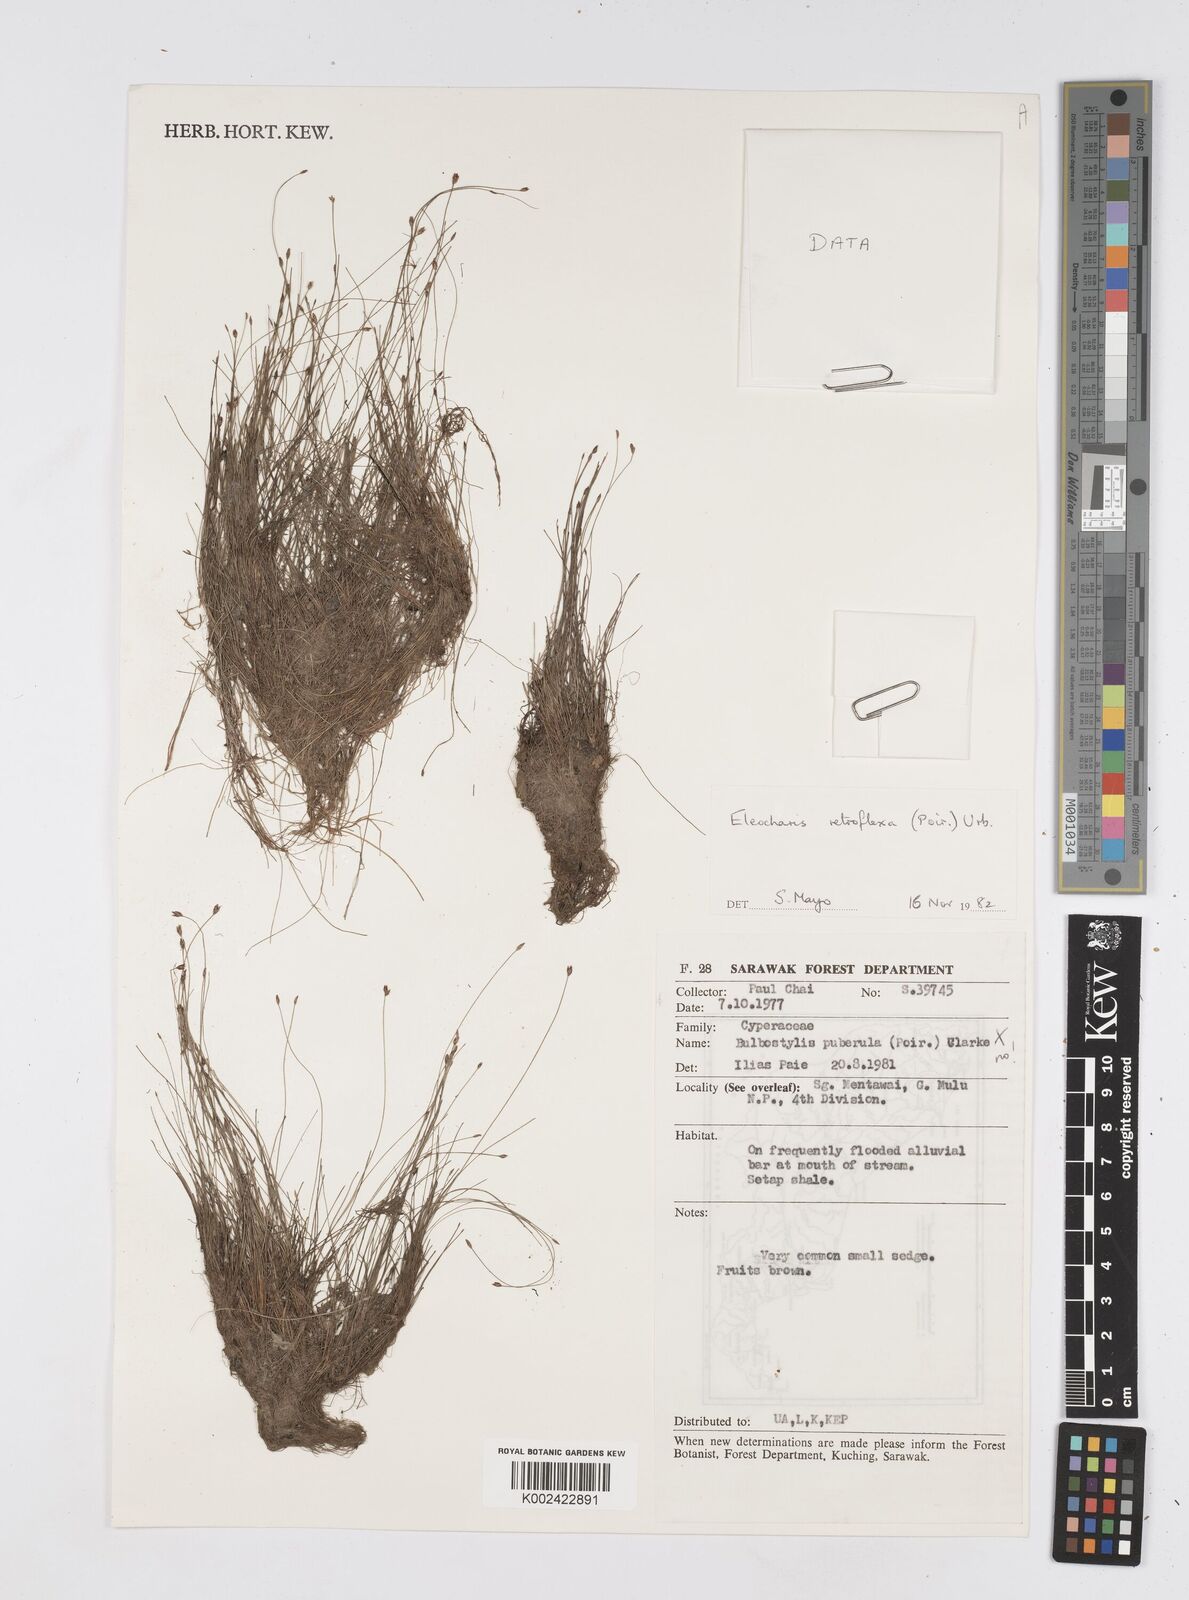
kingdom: Plantae
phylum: Tracheophyta
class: Liliopsida
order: Poales
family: Cyperaceae
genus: Eleocharis
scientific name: Eleocharis retroflexa
